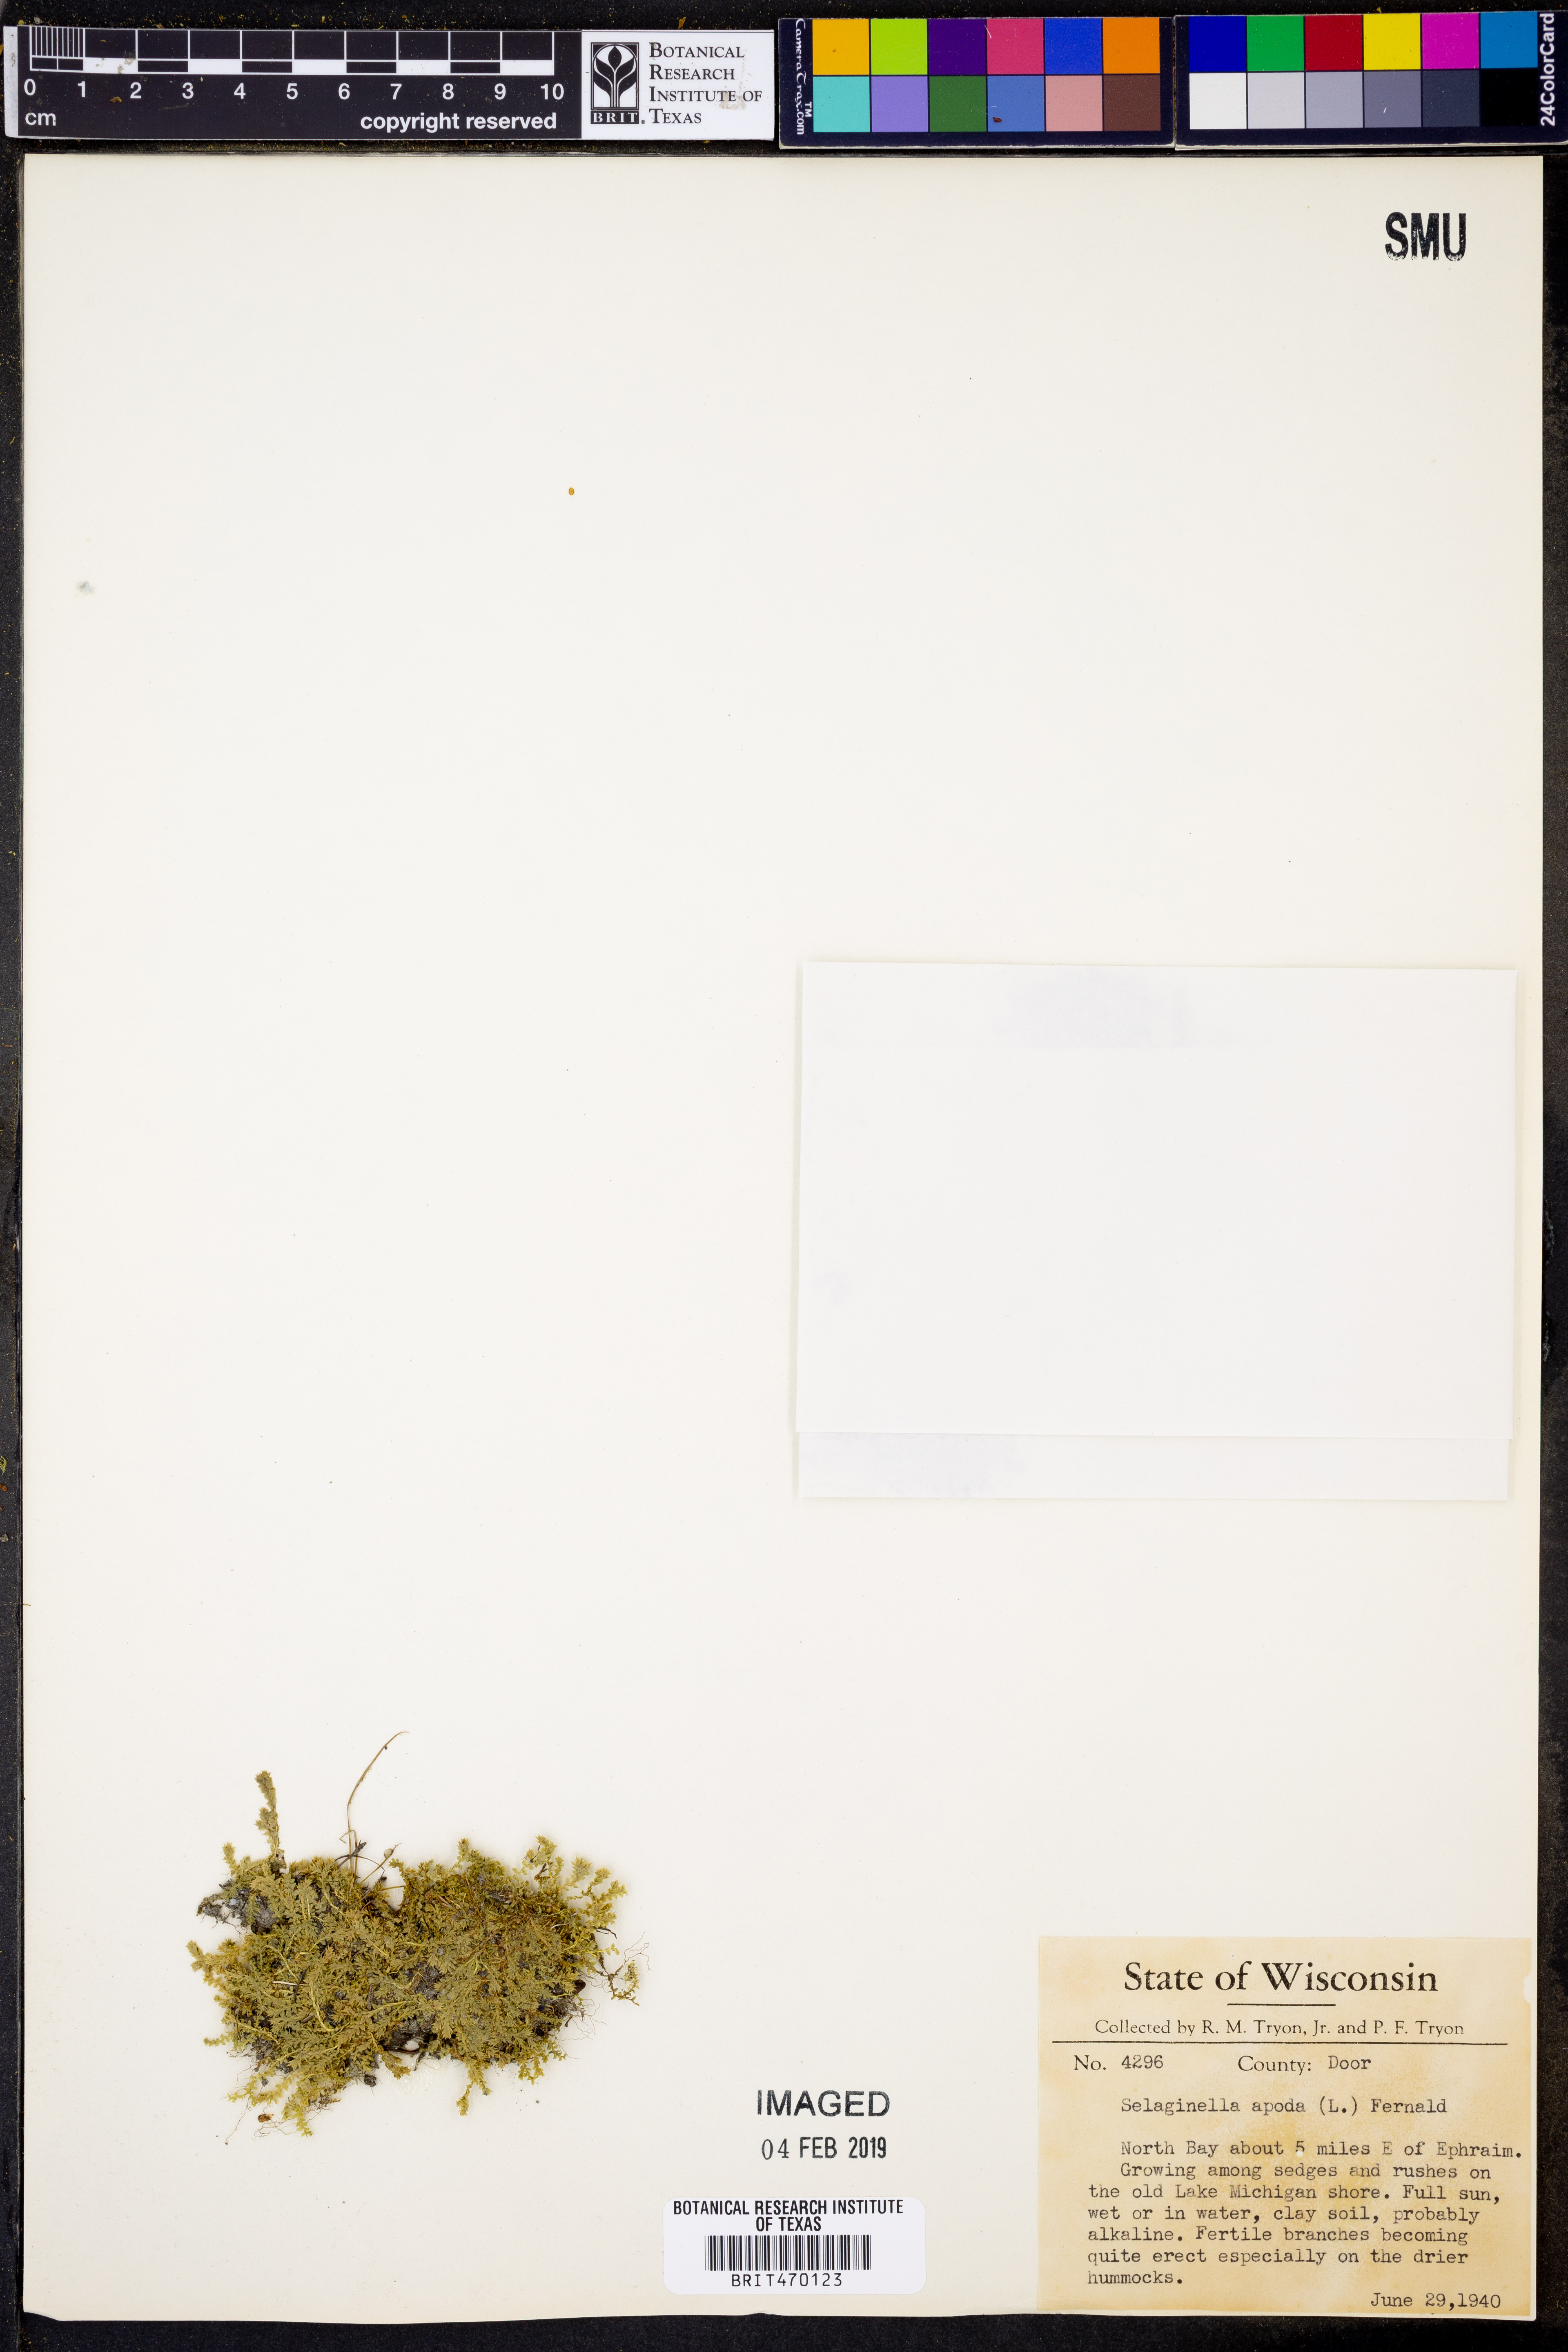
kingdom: Plantae
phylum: Tracheophyta
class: Lycopodiopsida
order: Selaginellales
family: Selaginellaceae
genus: Selaginella
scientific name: Selaginella apoda
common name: Creeping spikemoss
